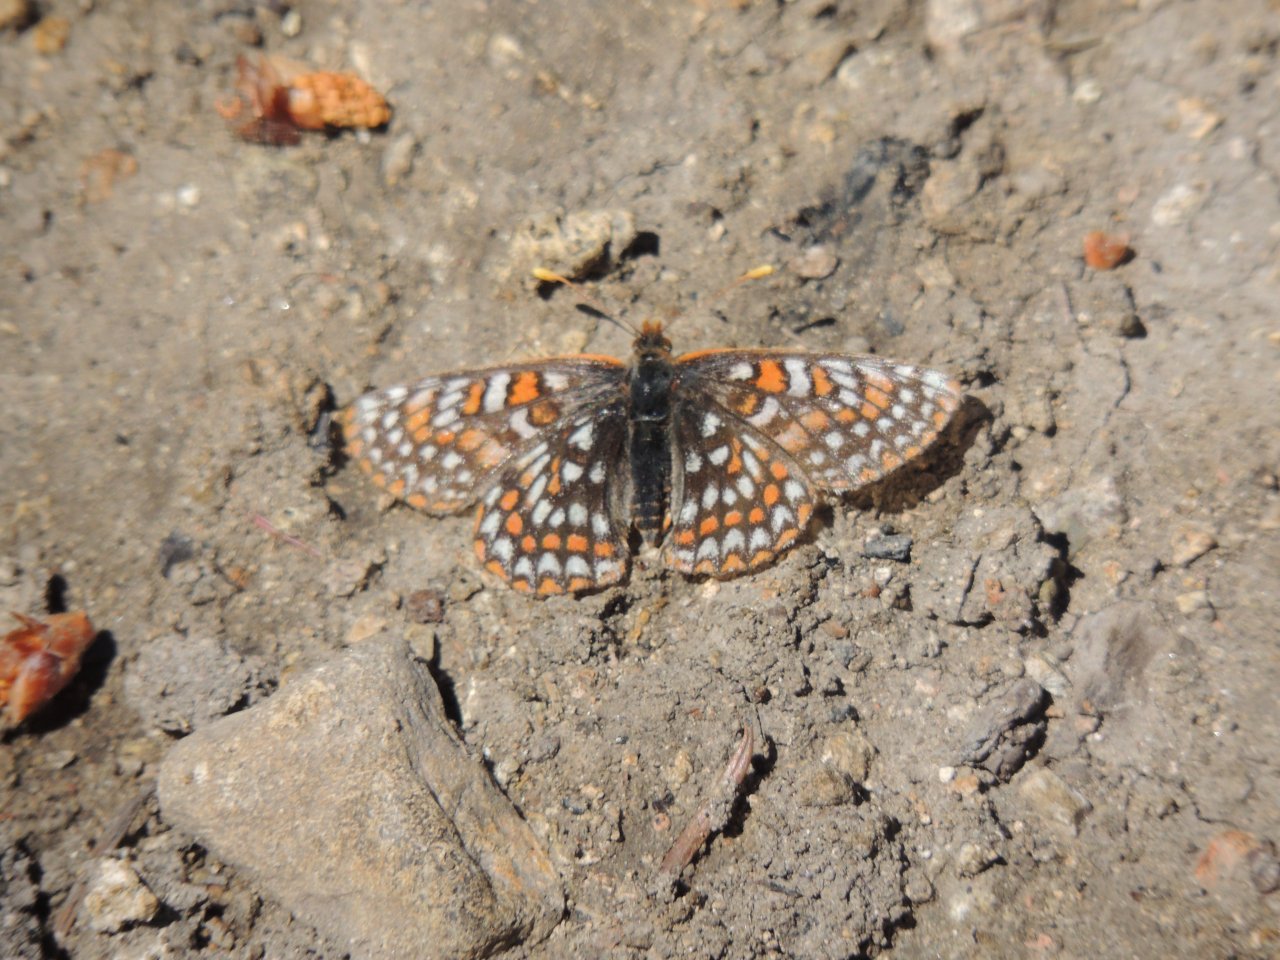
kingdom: Animalia
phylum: Arthropoda
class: Insecta
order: Lepidoptera
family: Nymphalidae
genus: Occidryas
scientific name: Occidryas anicia
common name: Anicia Checkerspot
